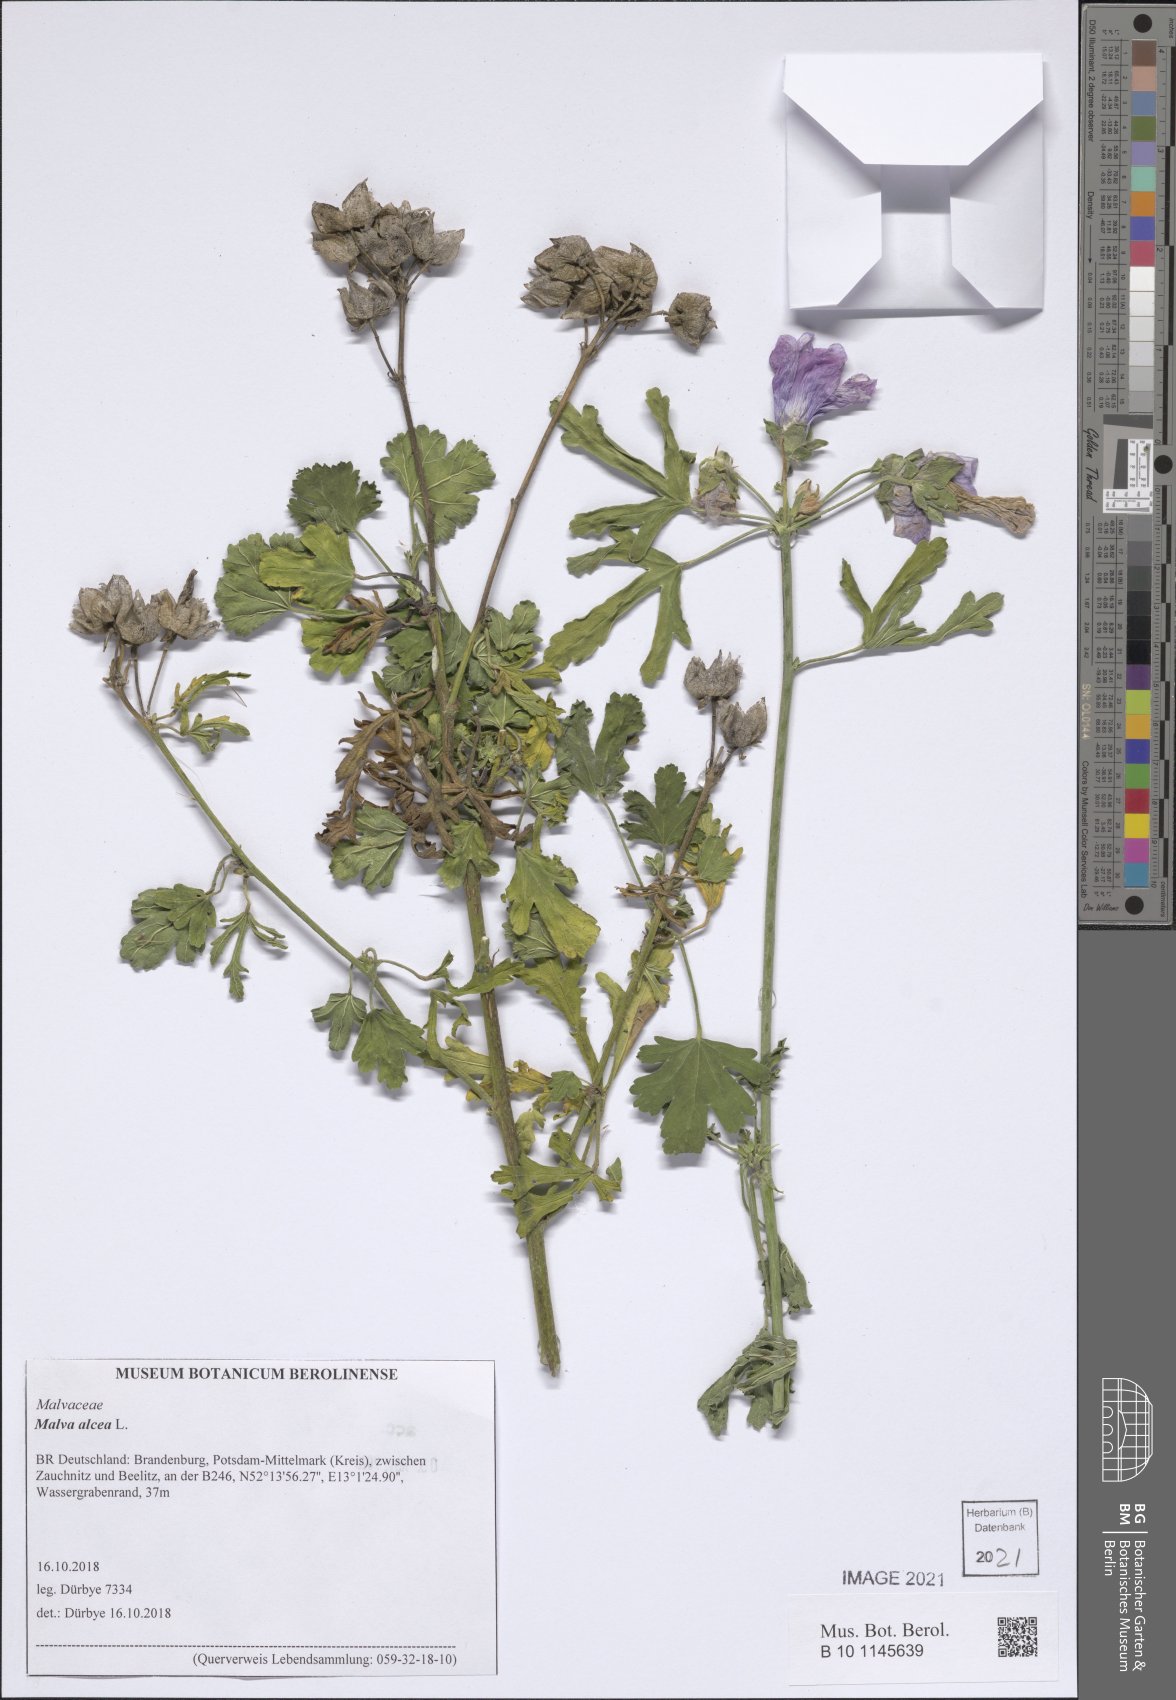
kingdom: Plantae
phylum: Tracheophyta
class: Magnoliopsida
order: Malvales
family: Malvaceae
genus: Malva
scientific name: Malva alcea
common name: Greater musk-mallow
